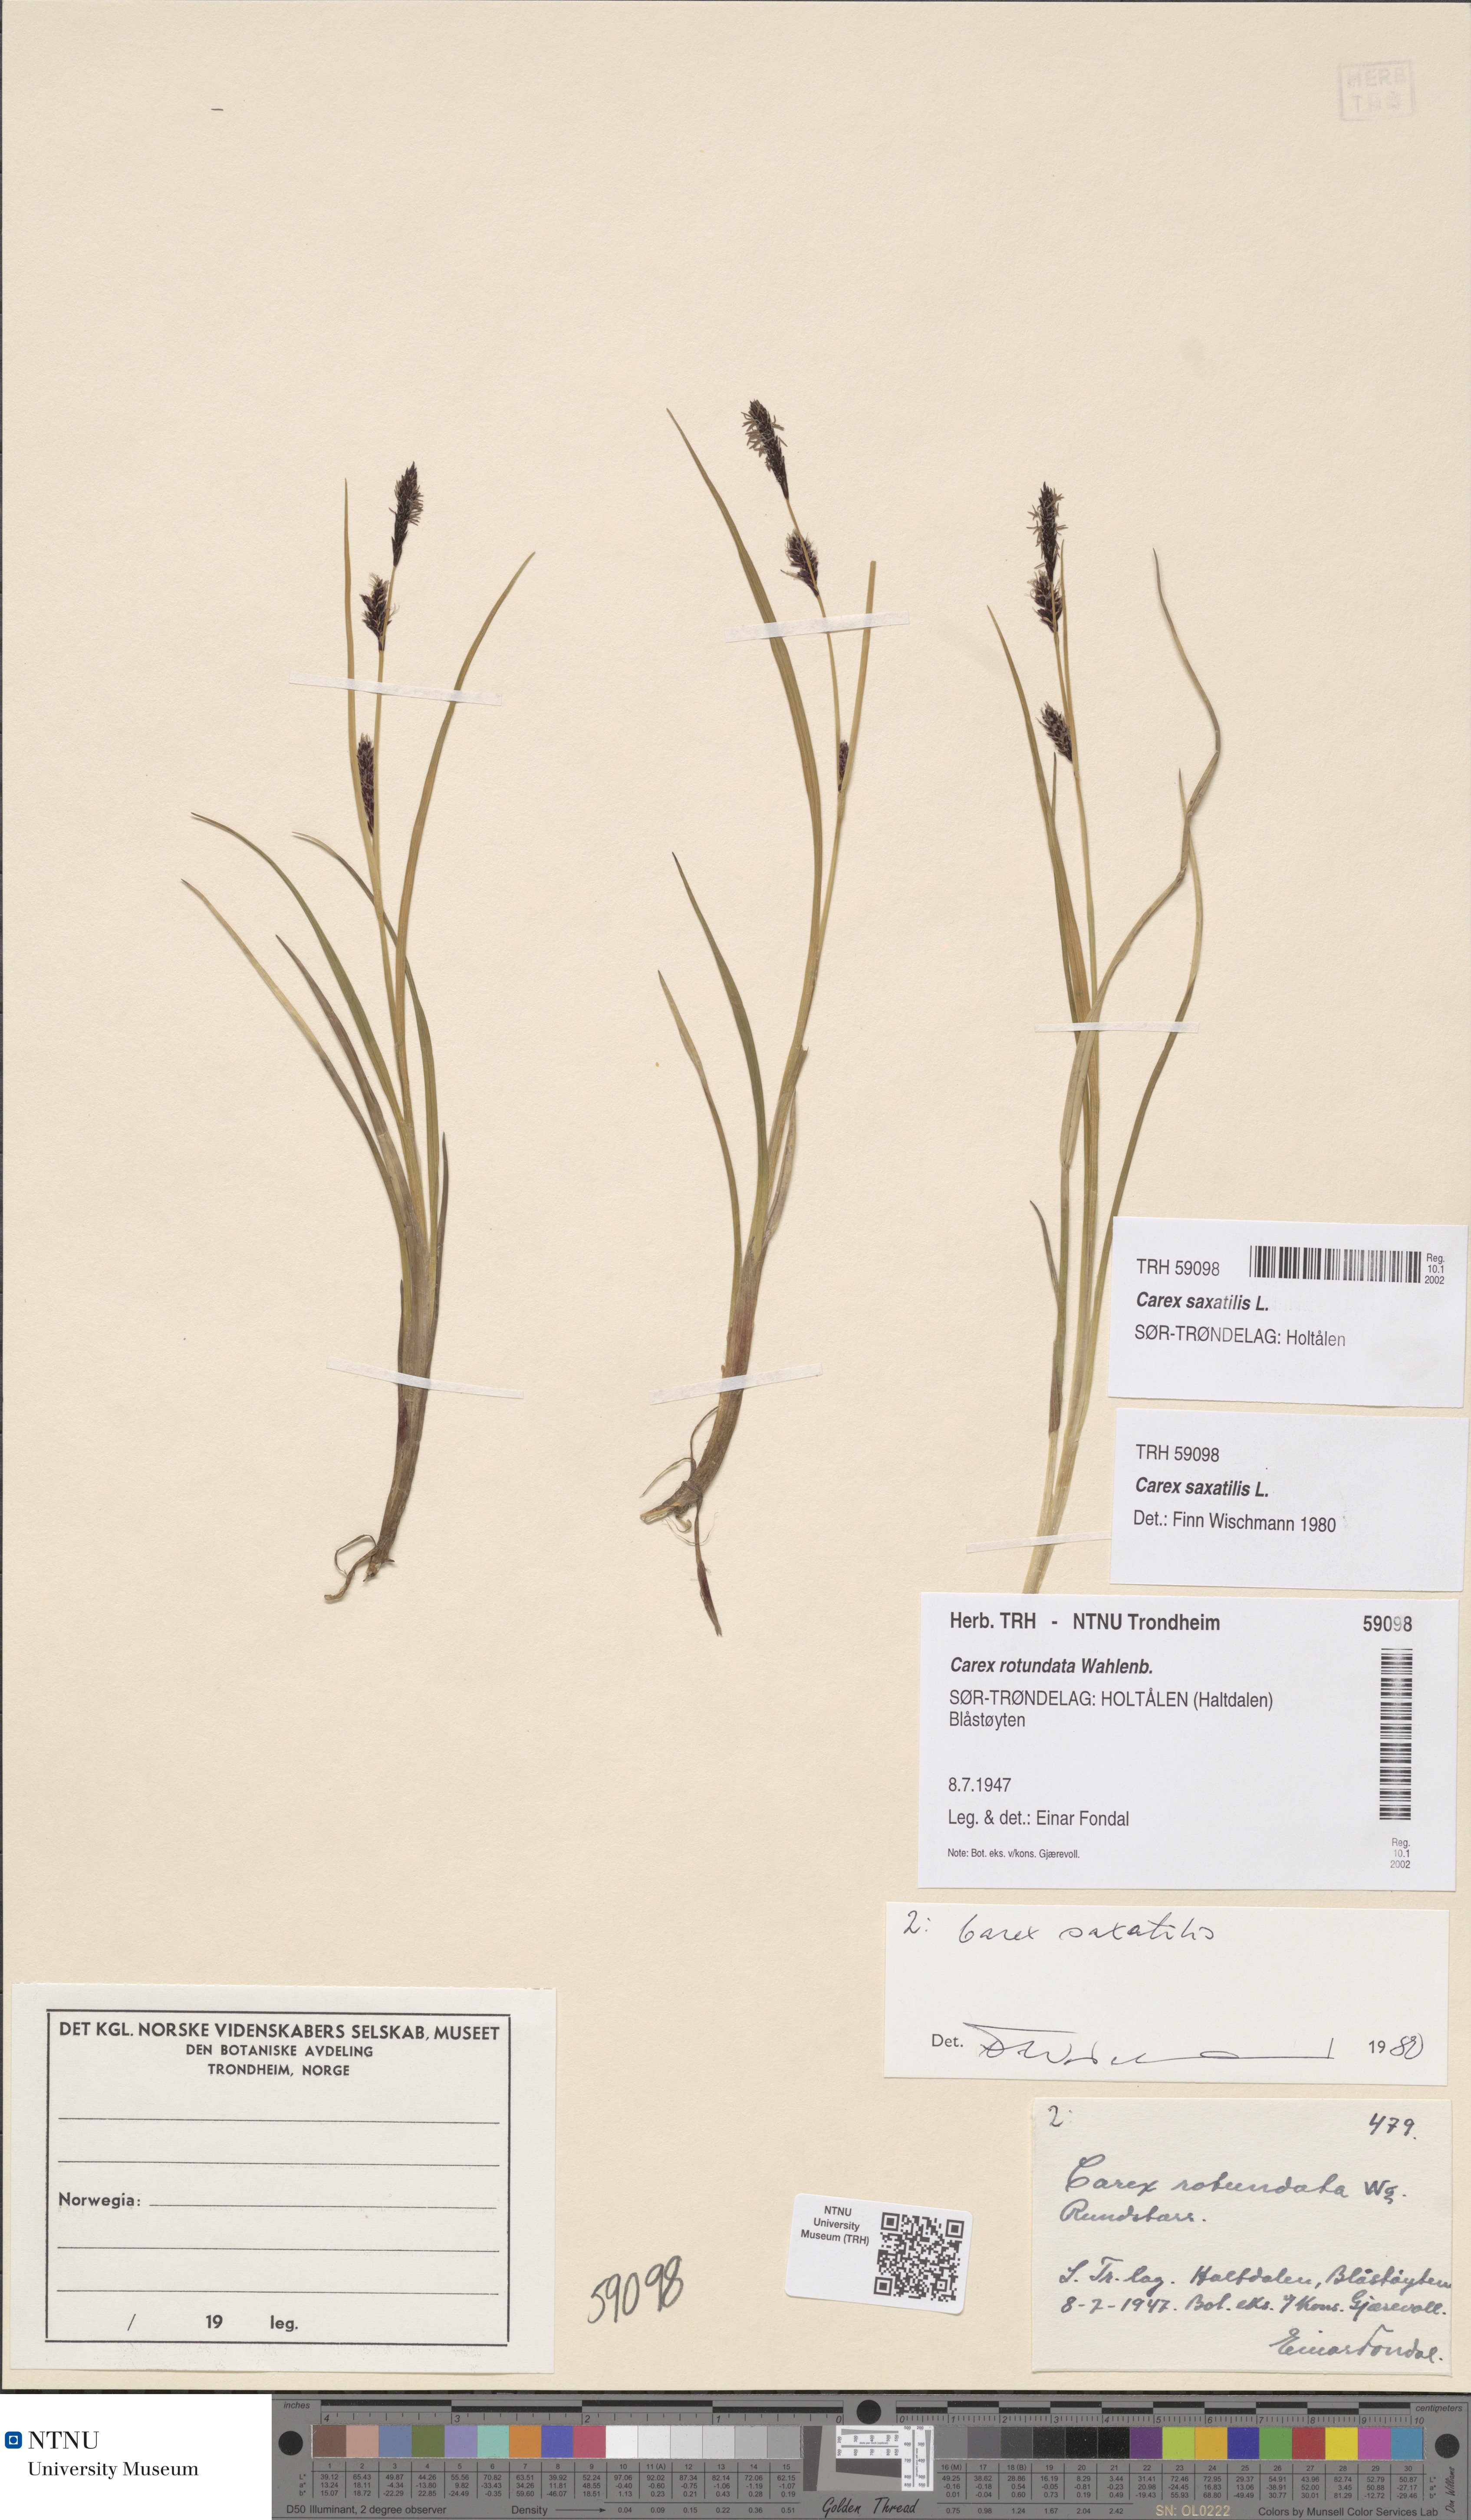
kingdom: Plantae
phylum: Tracheophyta
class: Liliopsida
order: Poales
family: Cyperaceae
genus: Carex
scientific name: Carex saxatilis
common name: Russet sedge
